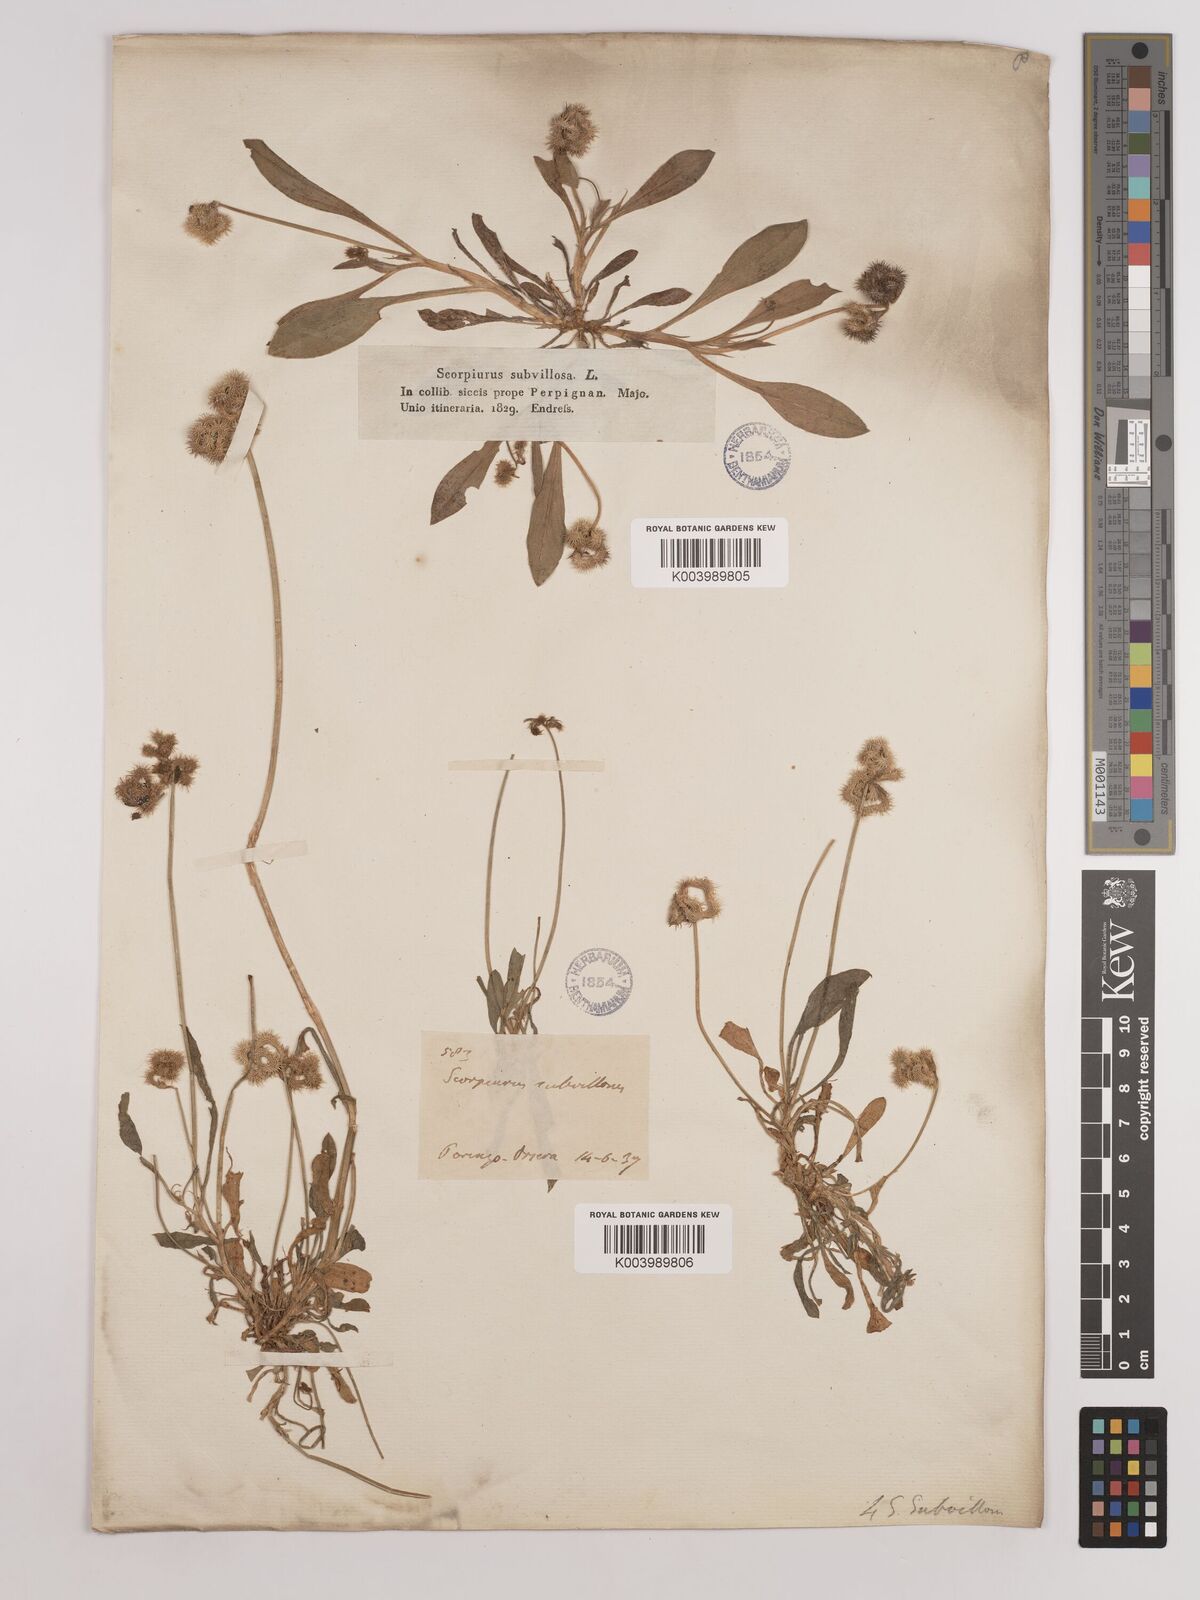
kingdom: Plantae
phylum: Tracheophyta
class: Magnoliopsida
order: Fabales
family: Fabaceae
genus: Scorpiurus
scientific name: Scorpiurus muricatus
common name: Caterpillar-plant
